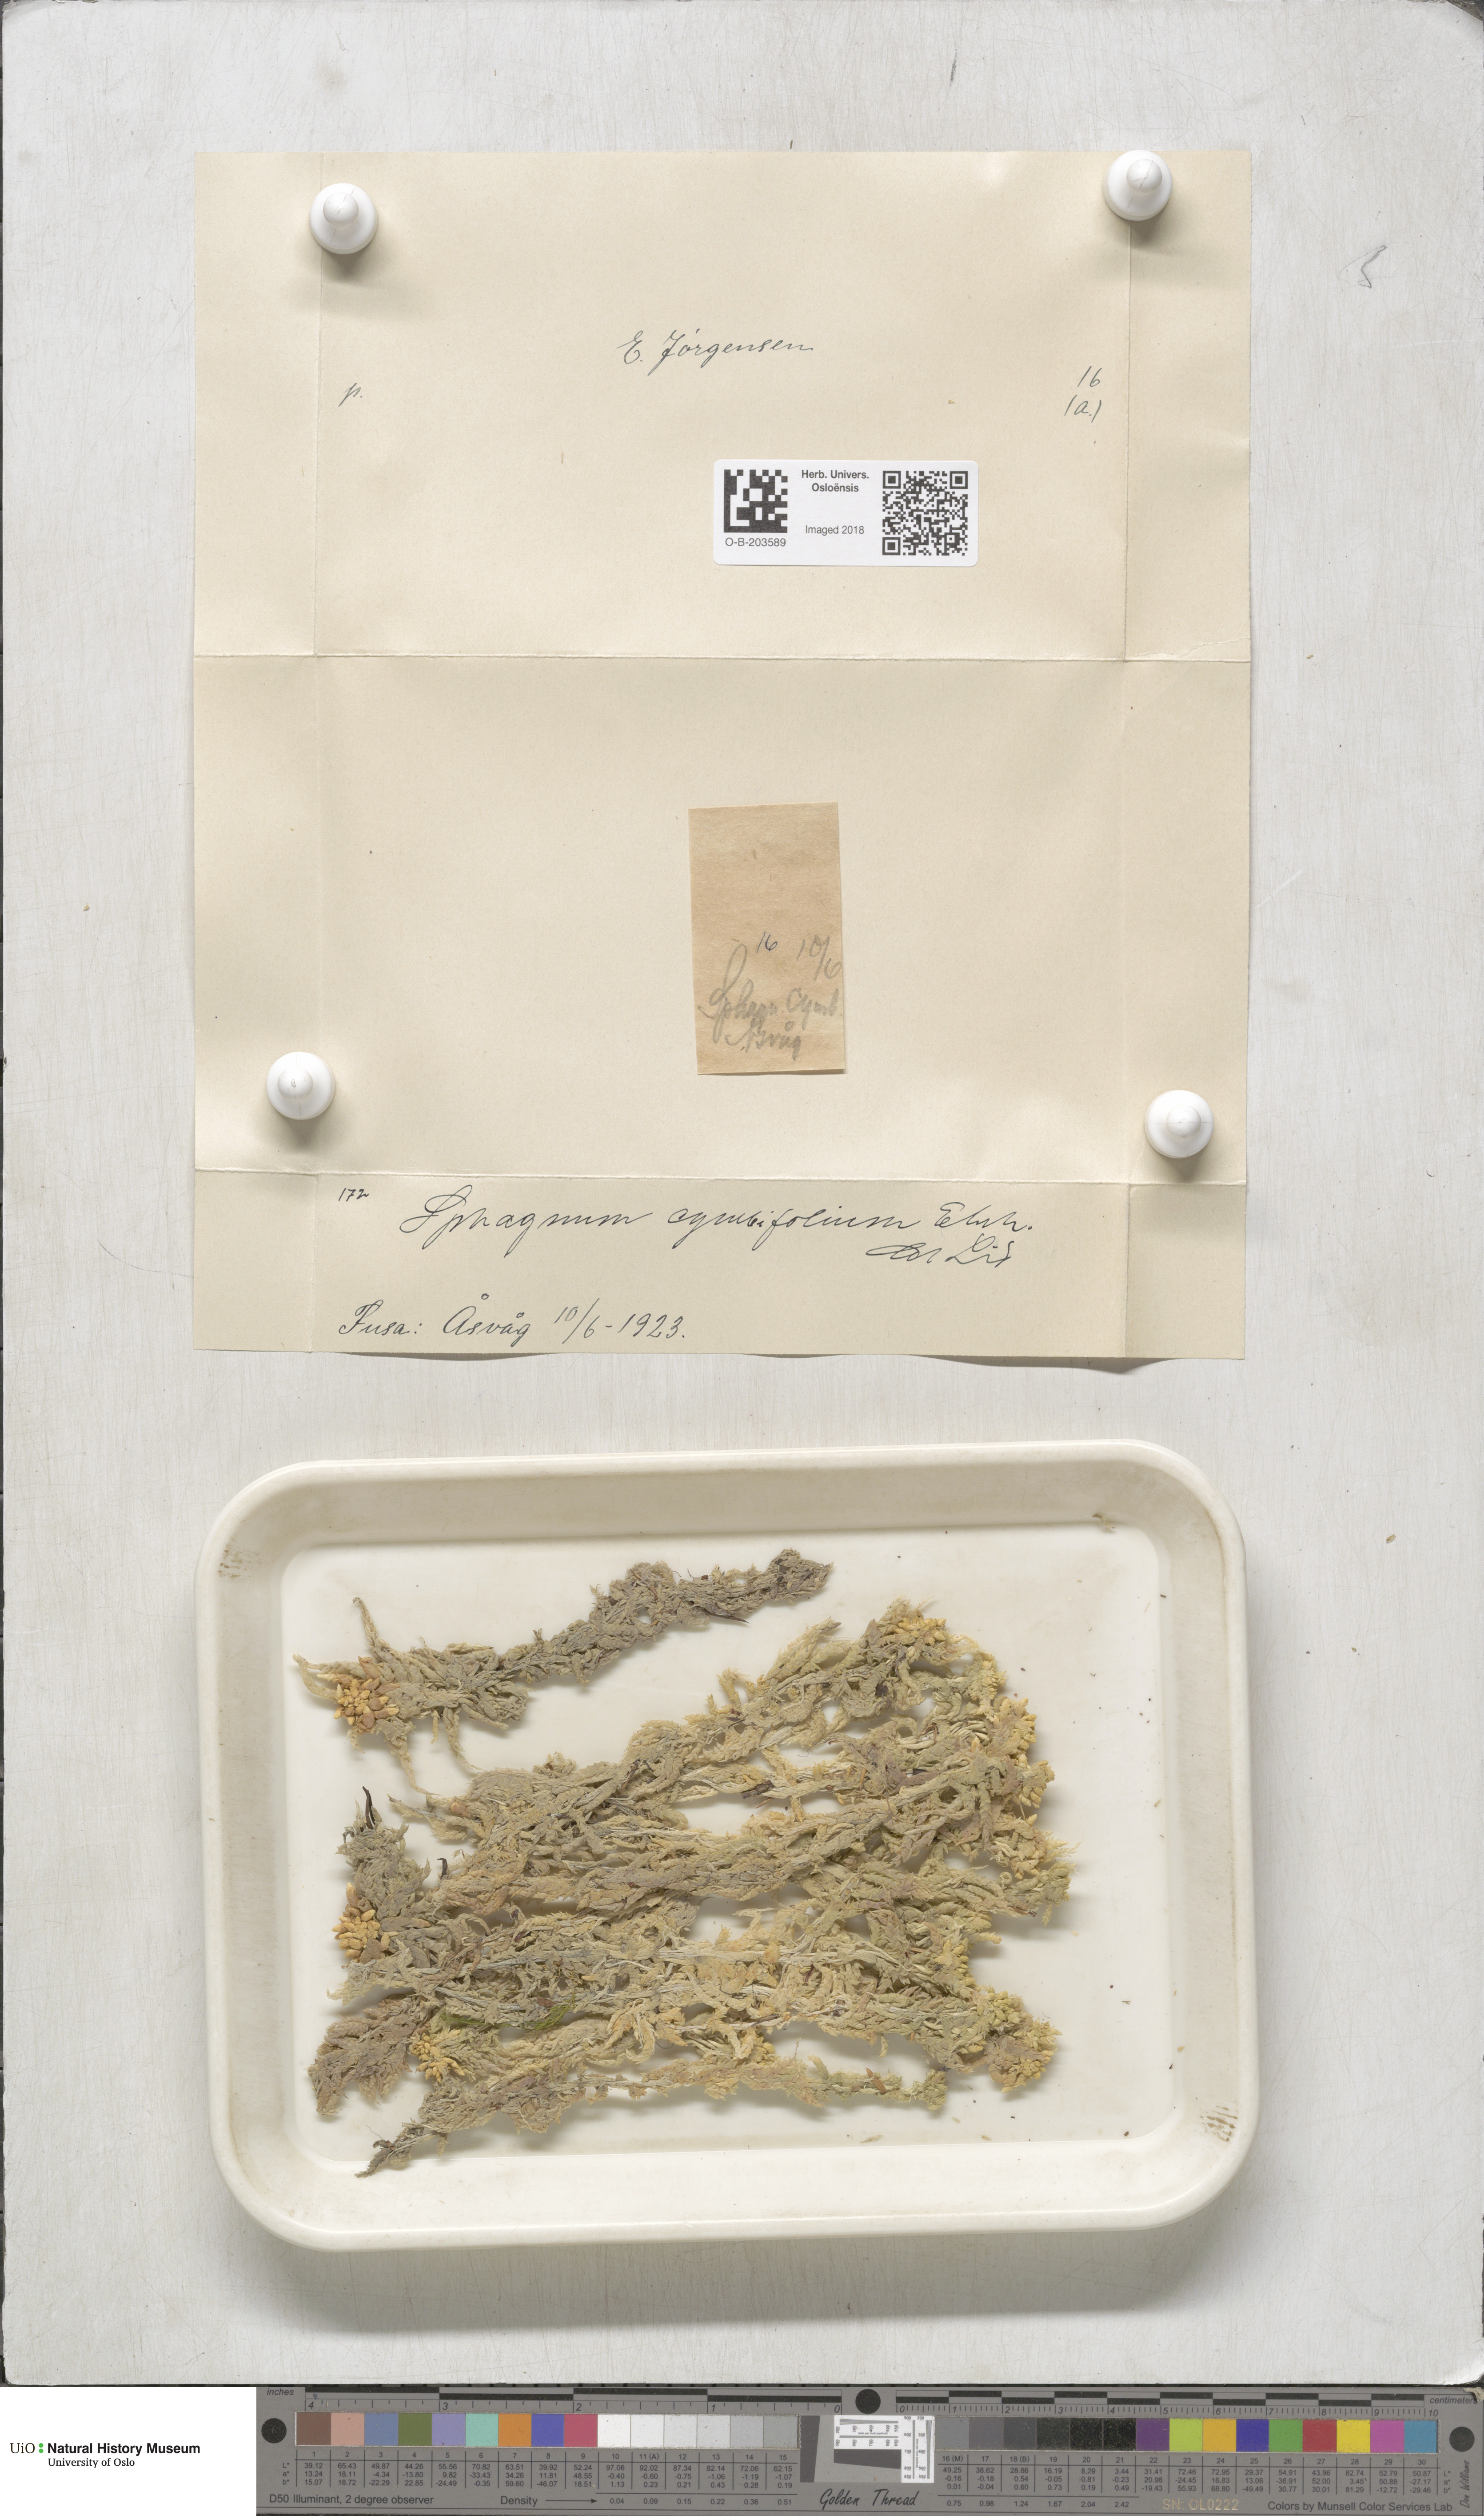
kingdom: Plantae
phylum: Bryophyta
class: Sphagnopsida
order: Sphagnales
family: Sphagnaceae
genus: Sphagnum
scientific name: Sphagnum palustre
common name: Blunt-leaved bog-moss
